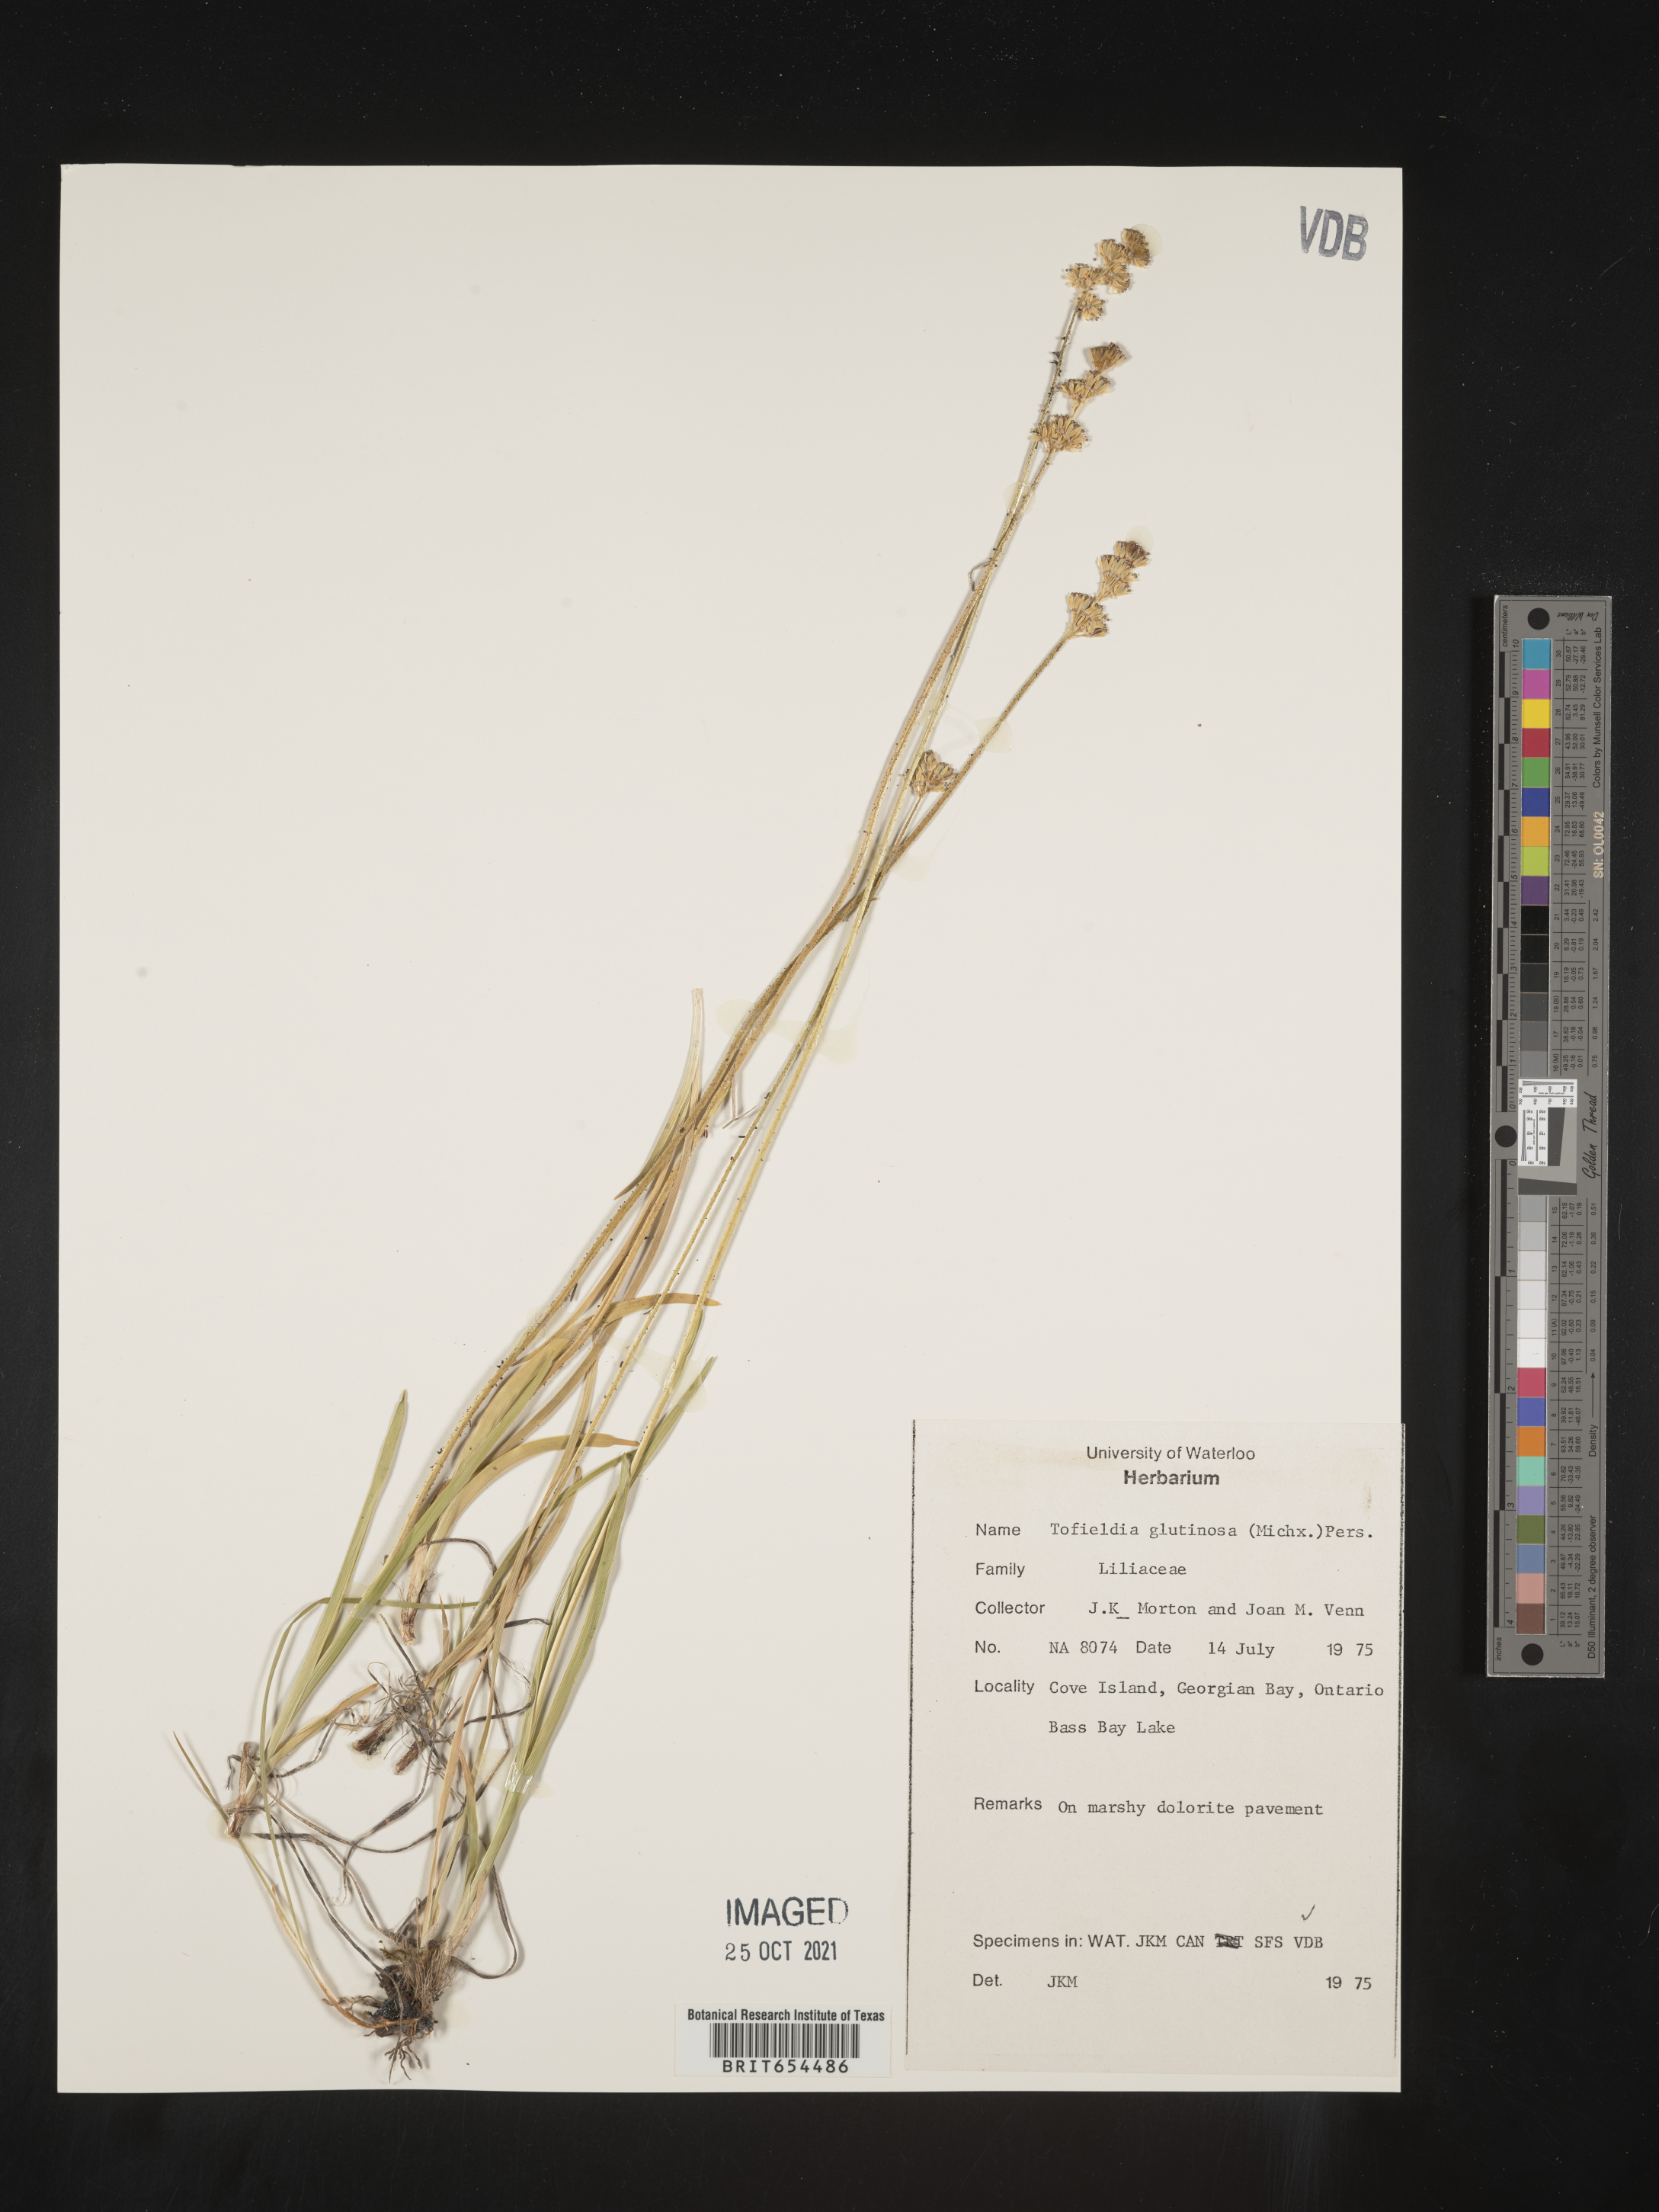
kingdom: Plantae
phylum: Tracheophyta
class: Liliopsida
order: Alismatales
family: Tofieldiaceae
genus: Tofieldia
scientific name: Tofieldia
